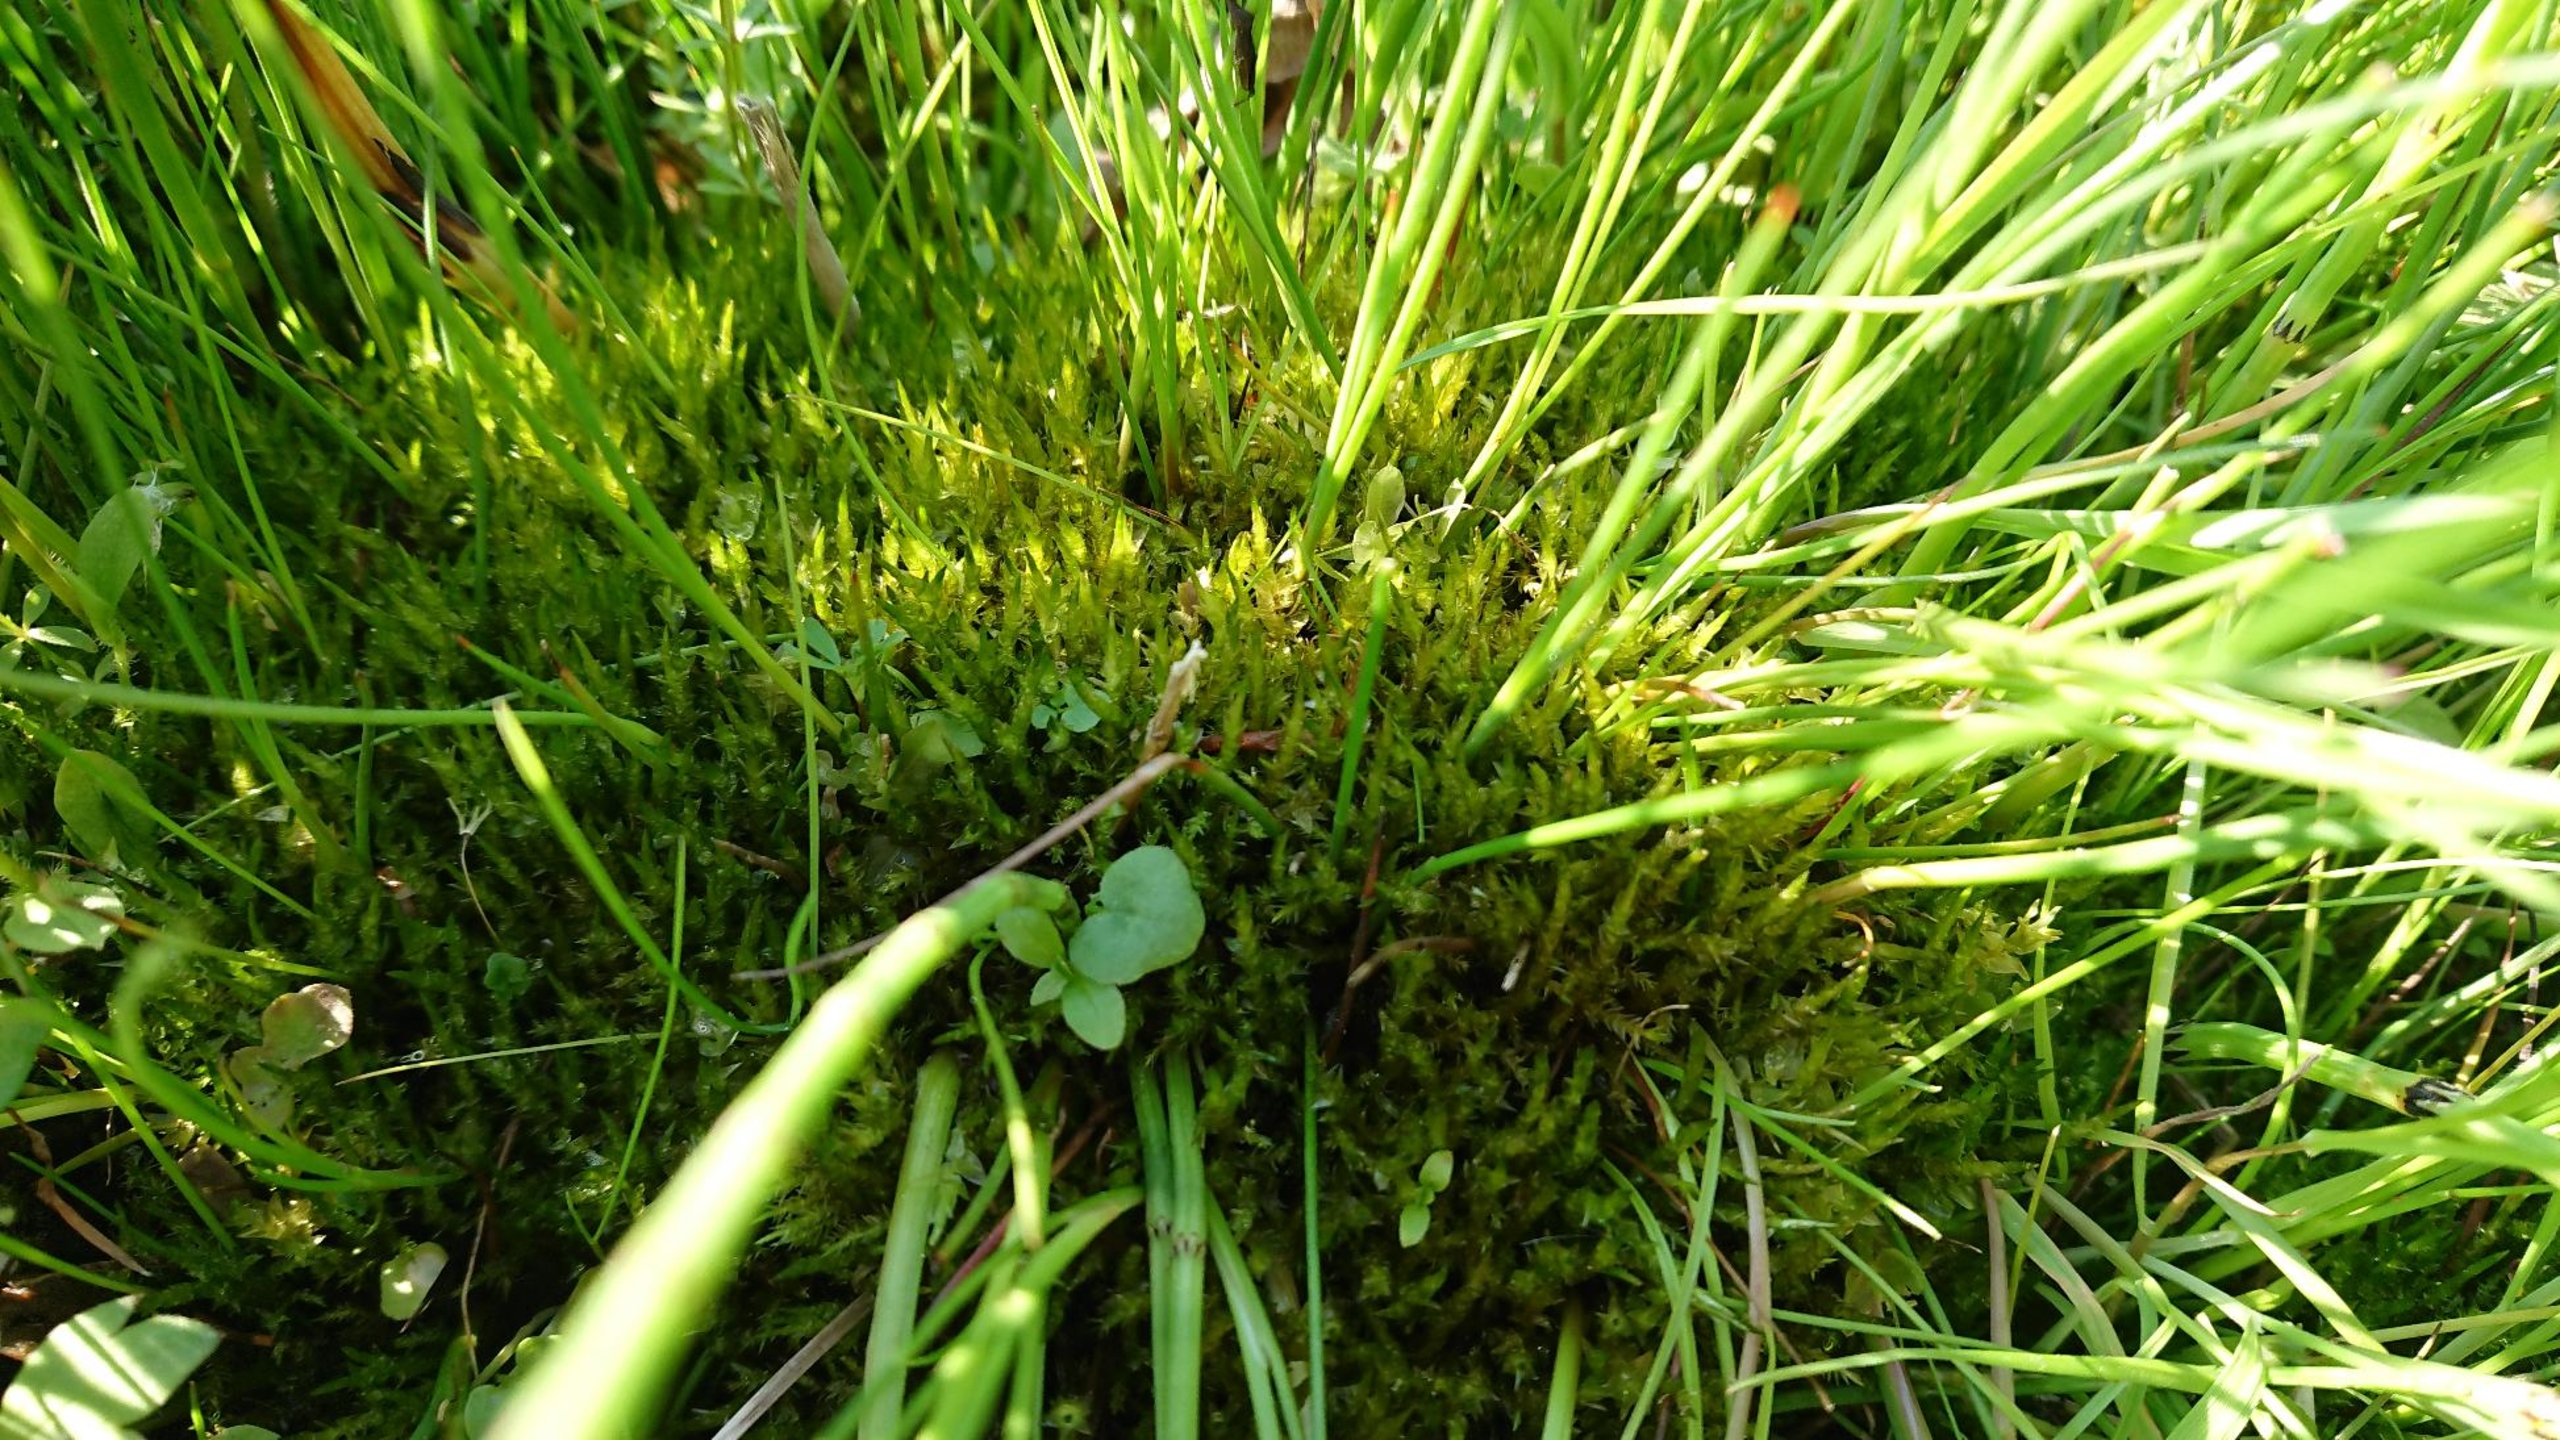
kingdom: Plantae
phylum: Bryophyta
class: Bryopsida
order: Hypnales
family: Pylaisiaceae
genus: Calliergonella
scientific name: Calliergonella cuspidata
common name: Spids spydmos
